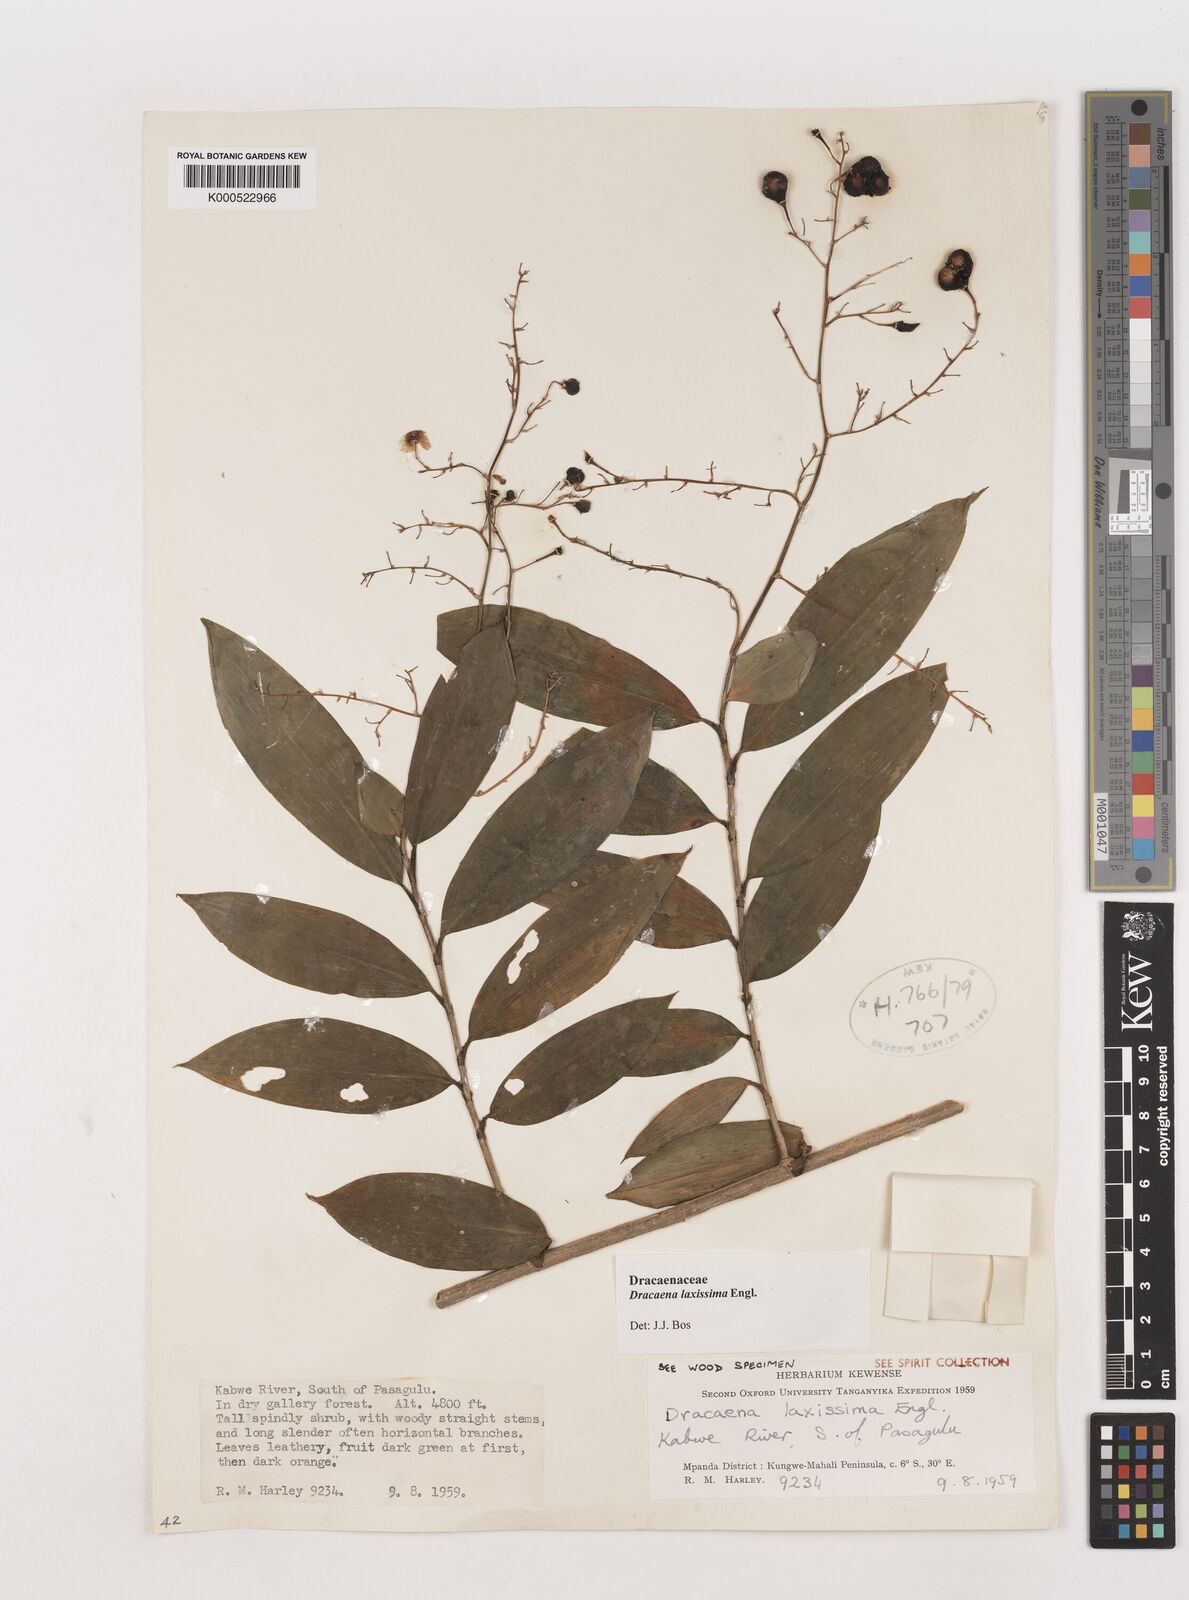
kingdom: Plantae
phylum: Tracheophyta
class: Liliopsida
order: Asparagales
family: Asparagaceae
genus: Dracaena
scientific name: Dracaena laxissima
